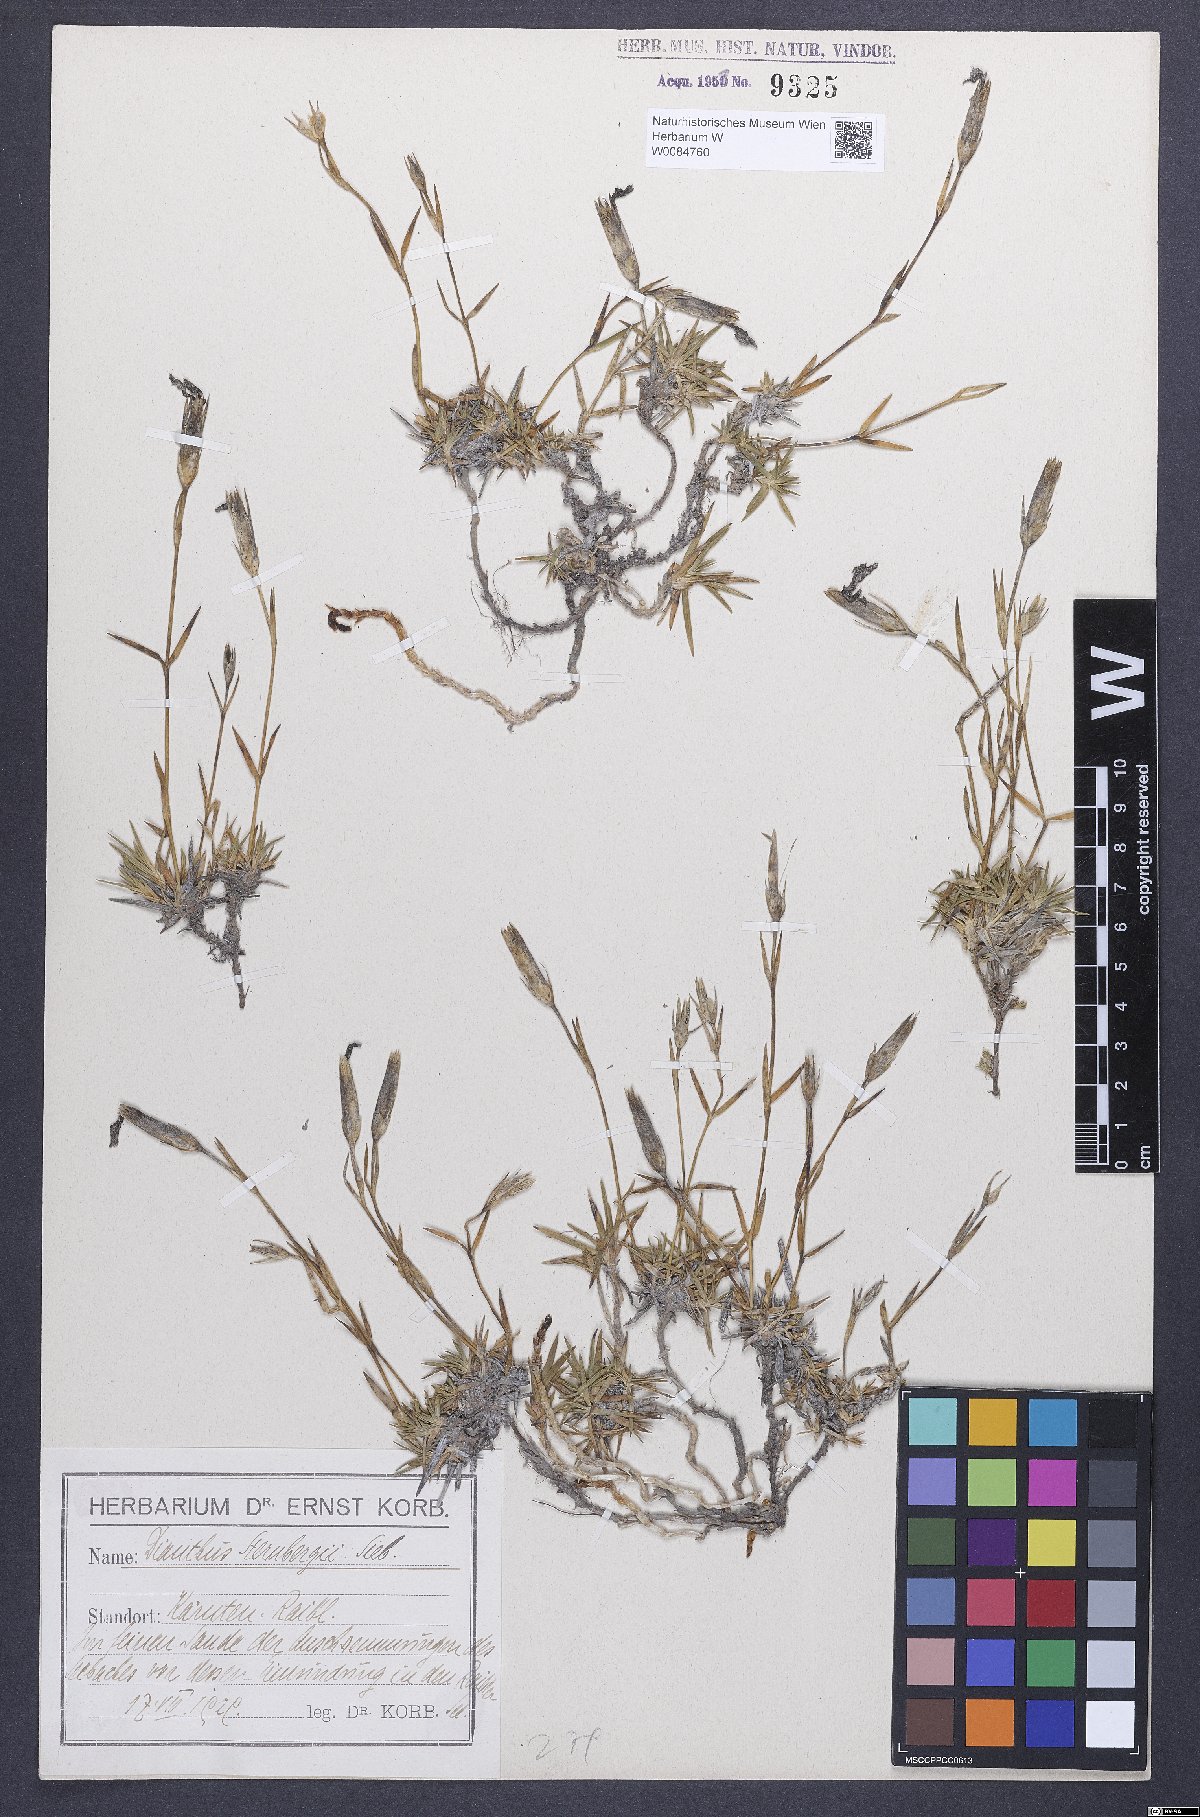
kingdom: Plantae
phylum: Tracheophyta
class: Magnoliopsida
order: Caryophyllales
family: Caryophyllaceae
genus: Dianthus
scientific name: Dianthus monspessulanus
